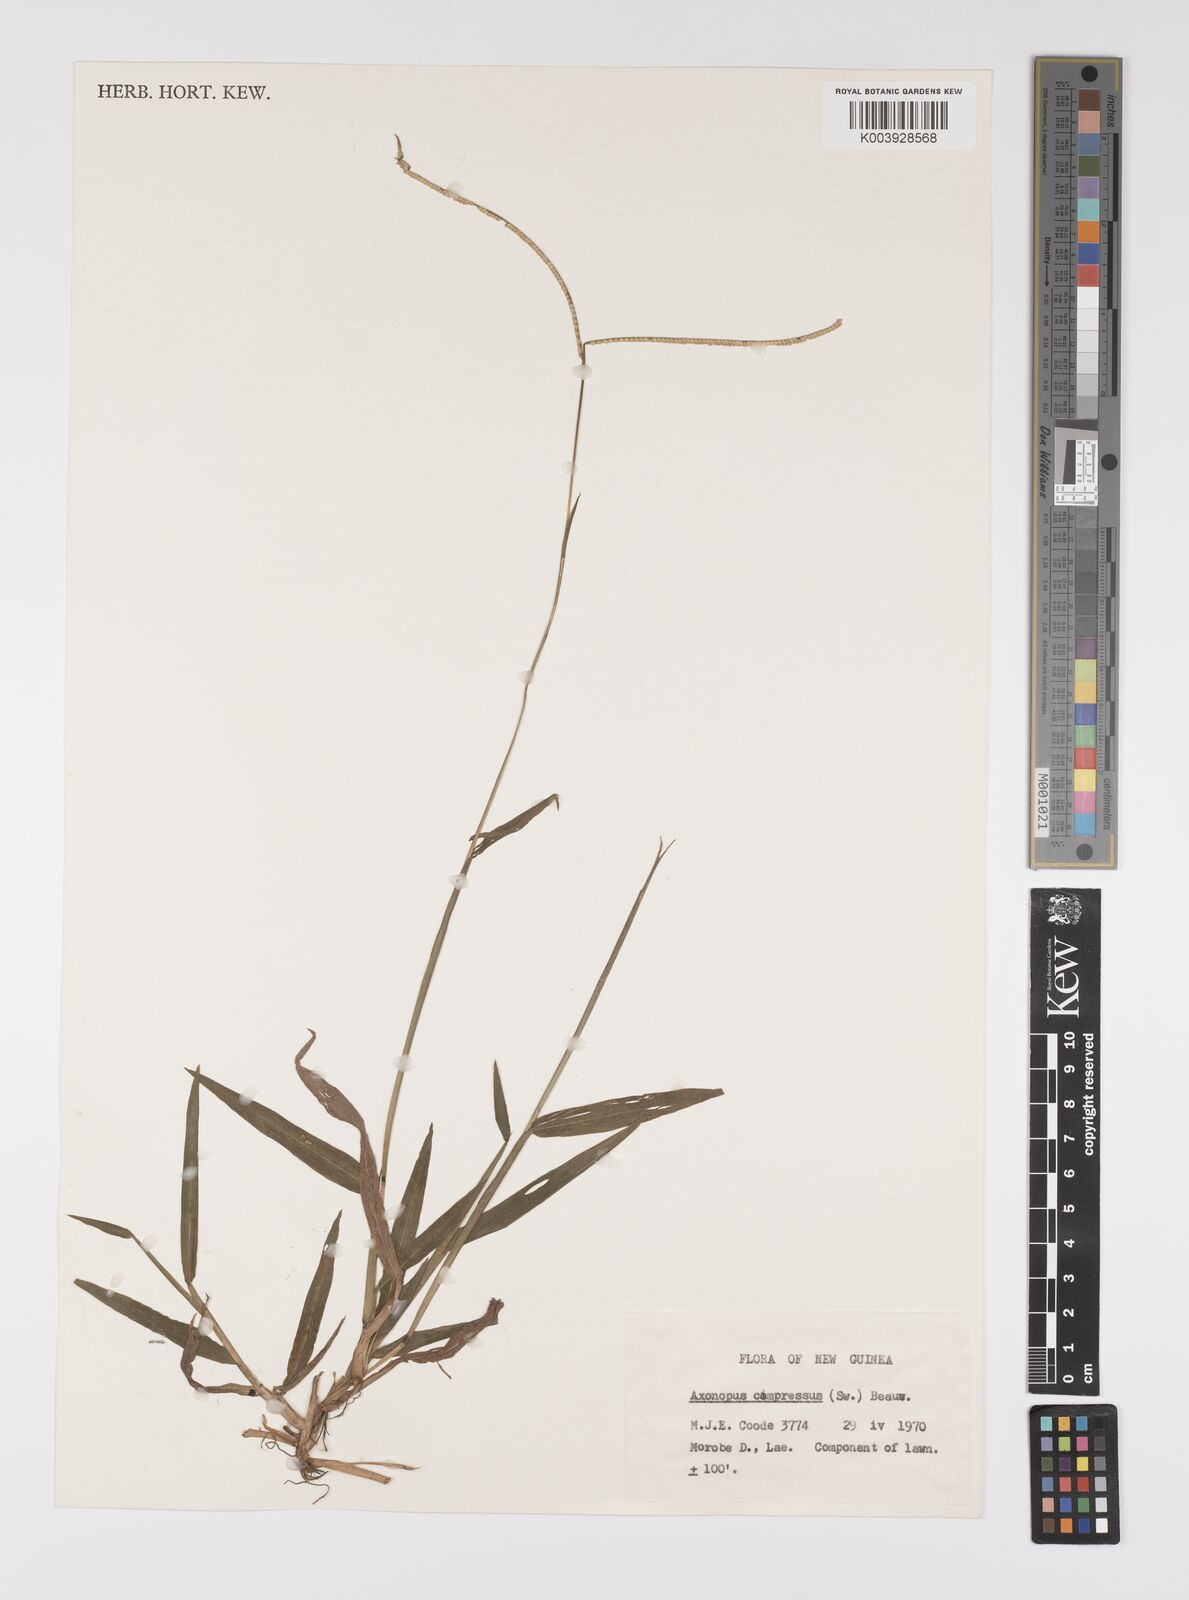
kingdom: Plantae
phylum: Tracheophyta
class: Liliopsida
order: Poales
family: Poaceae
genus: Paspalum
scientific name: Paspalum conjugatum
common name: Hilograss
